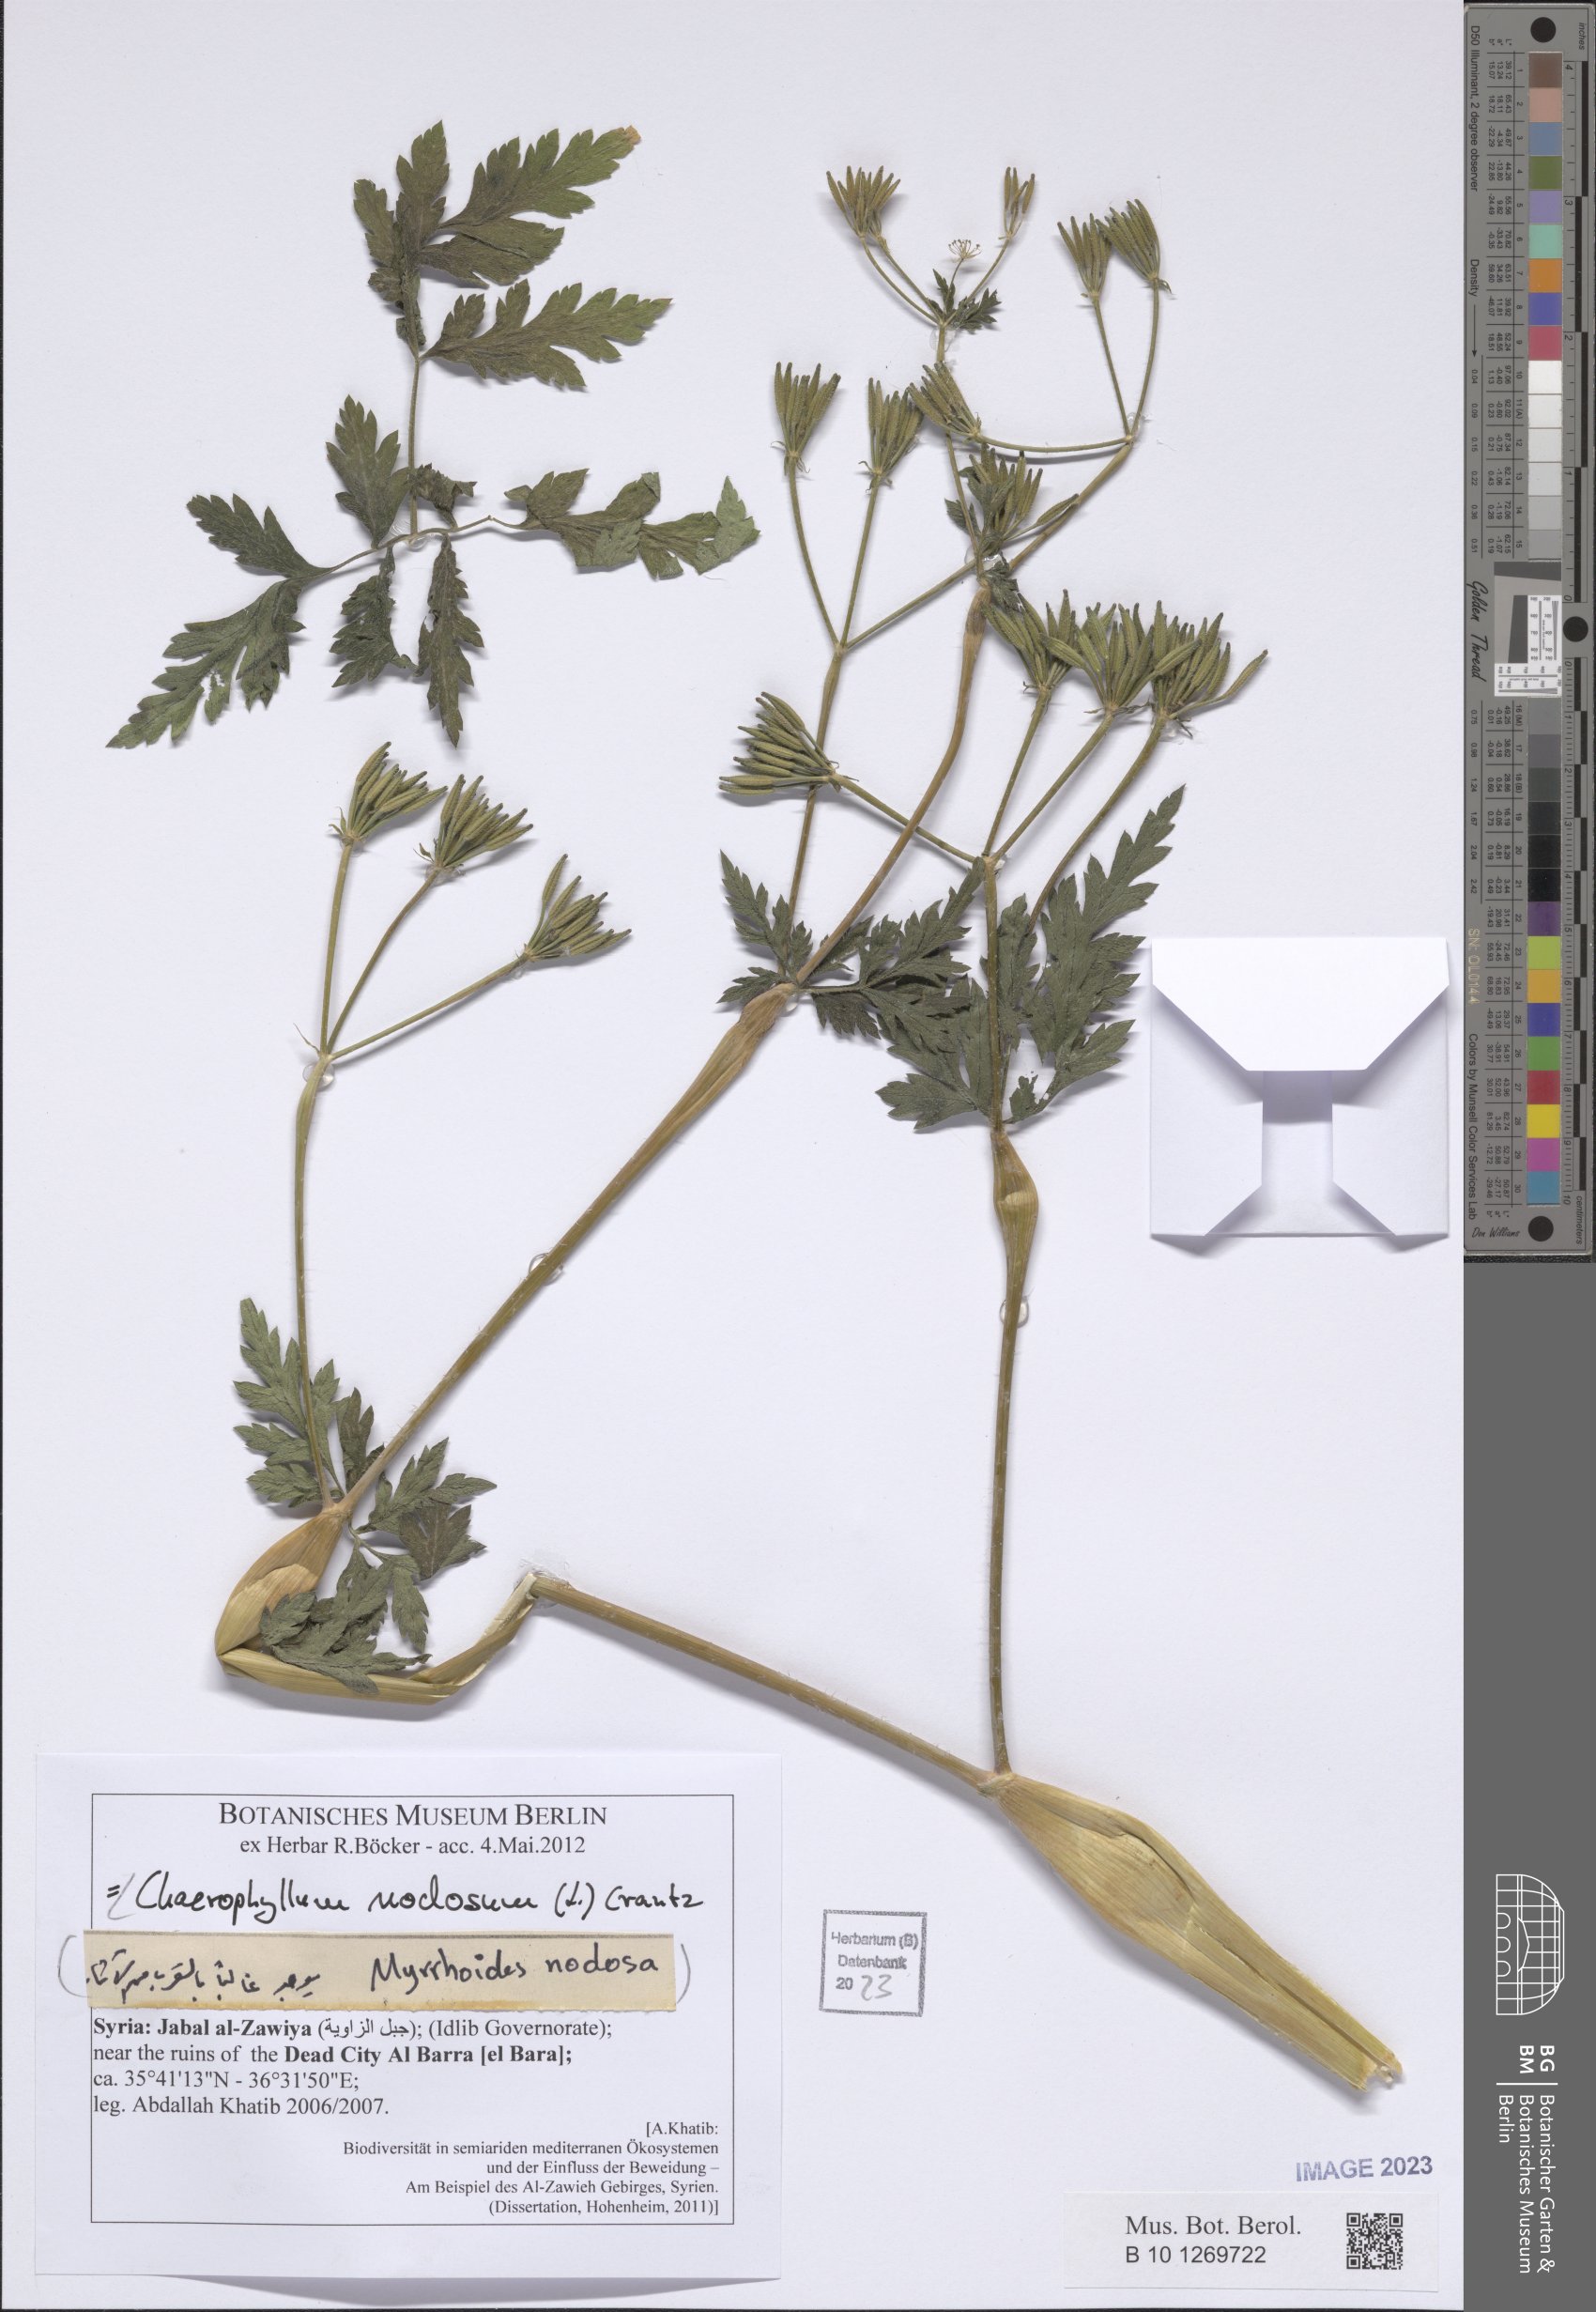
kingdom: Plantae
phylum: Tracheophyta
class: Magnoliopsida
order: Apiales
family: Apiaceae
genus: Chaerophyllum
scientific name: Chaerophyllum nodosum
